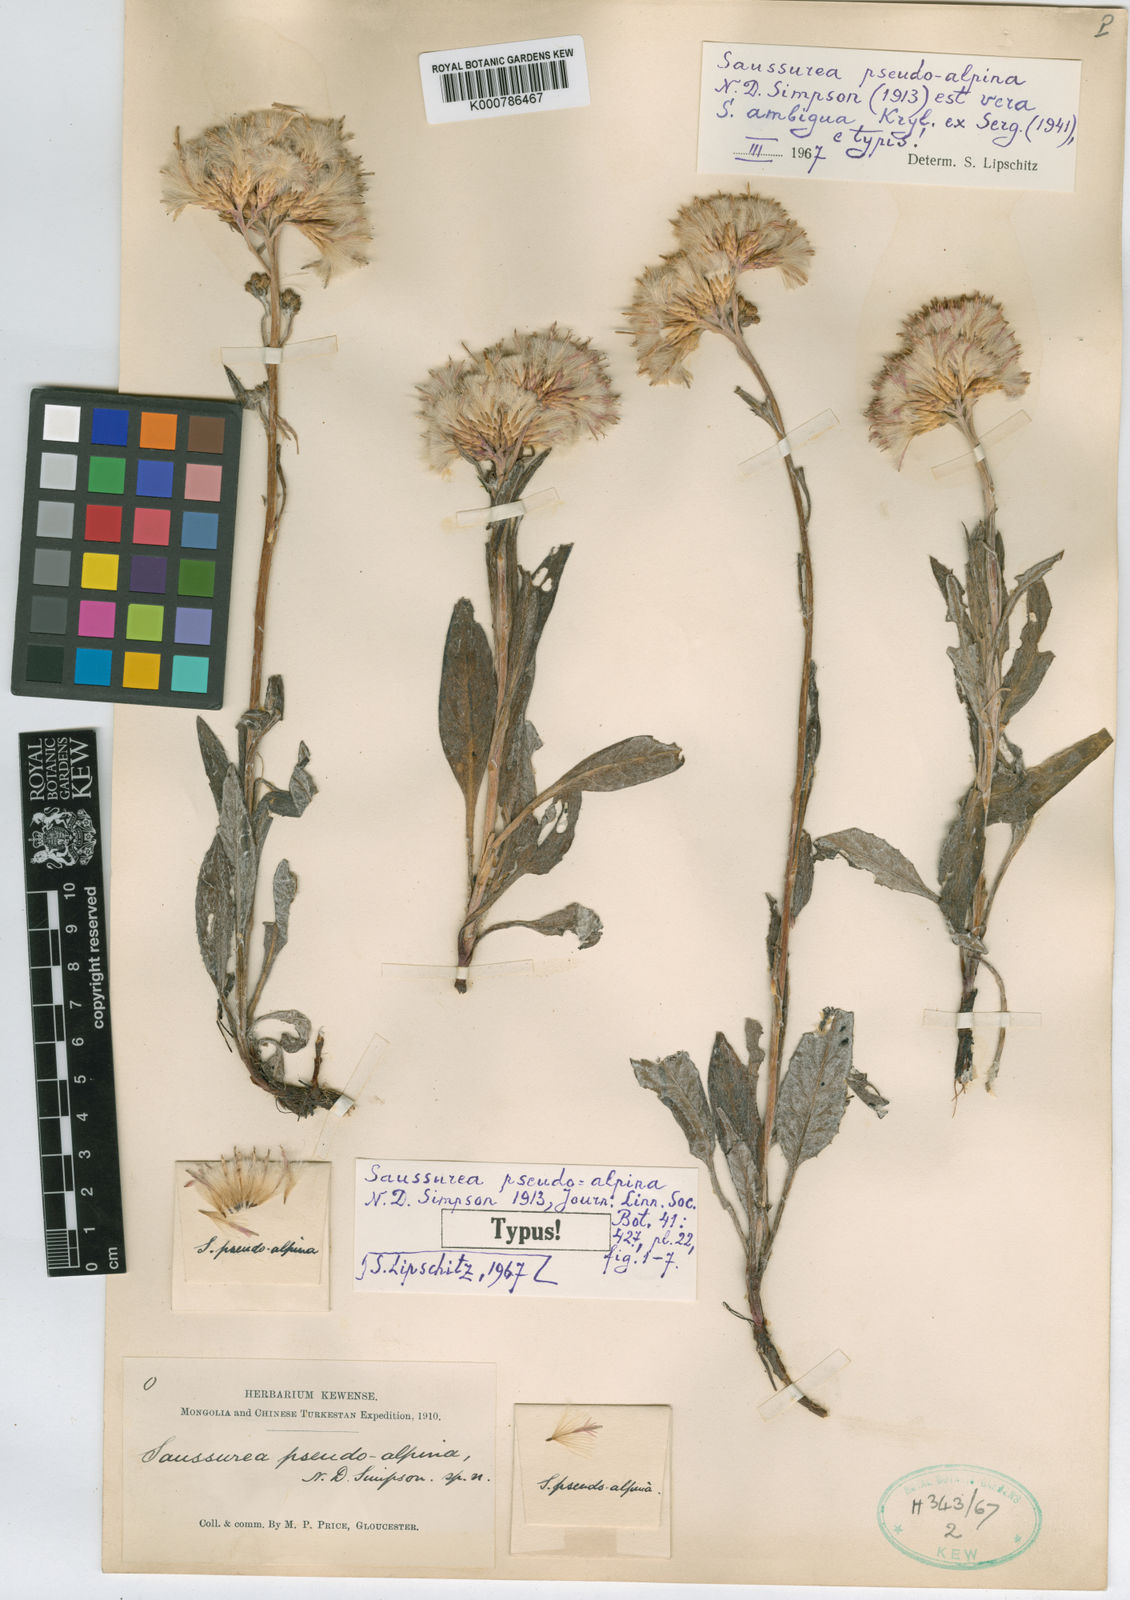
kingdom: Plantae
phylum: Tracheophyta
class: Magnoliopsida
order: Asterales
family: Asteraceae
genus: Saussurea
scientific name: Saussurea pseudoalpina
